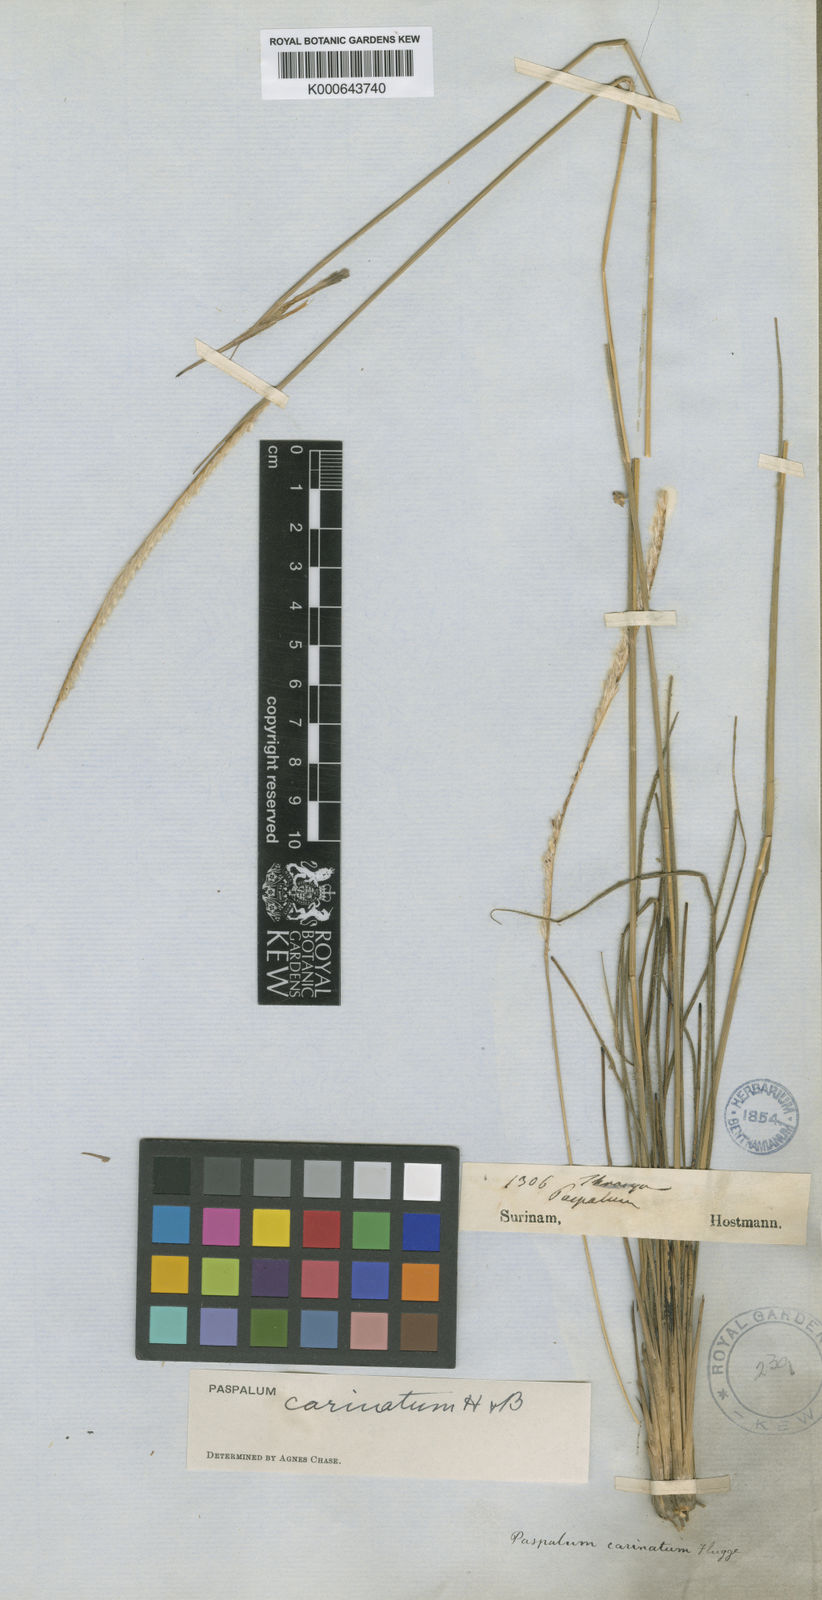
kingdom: Plantae
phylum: Tracheophyta
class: Liliopsida
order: Poales
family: Poaceae
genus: Paspalum
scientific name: Paspalum
